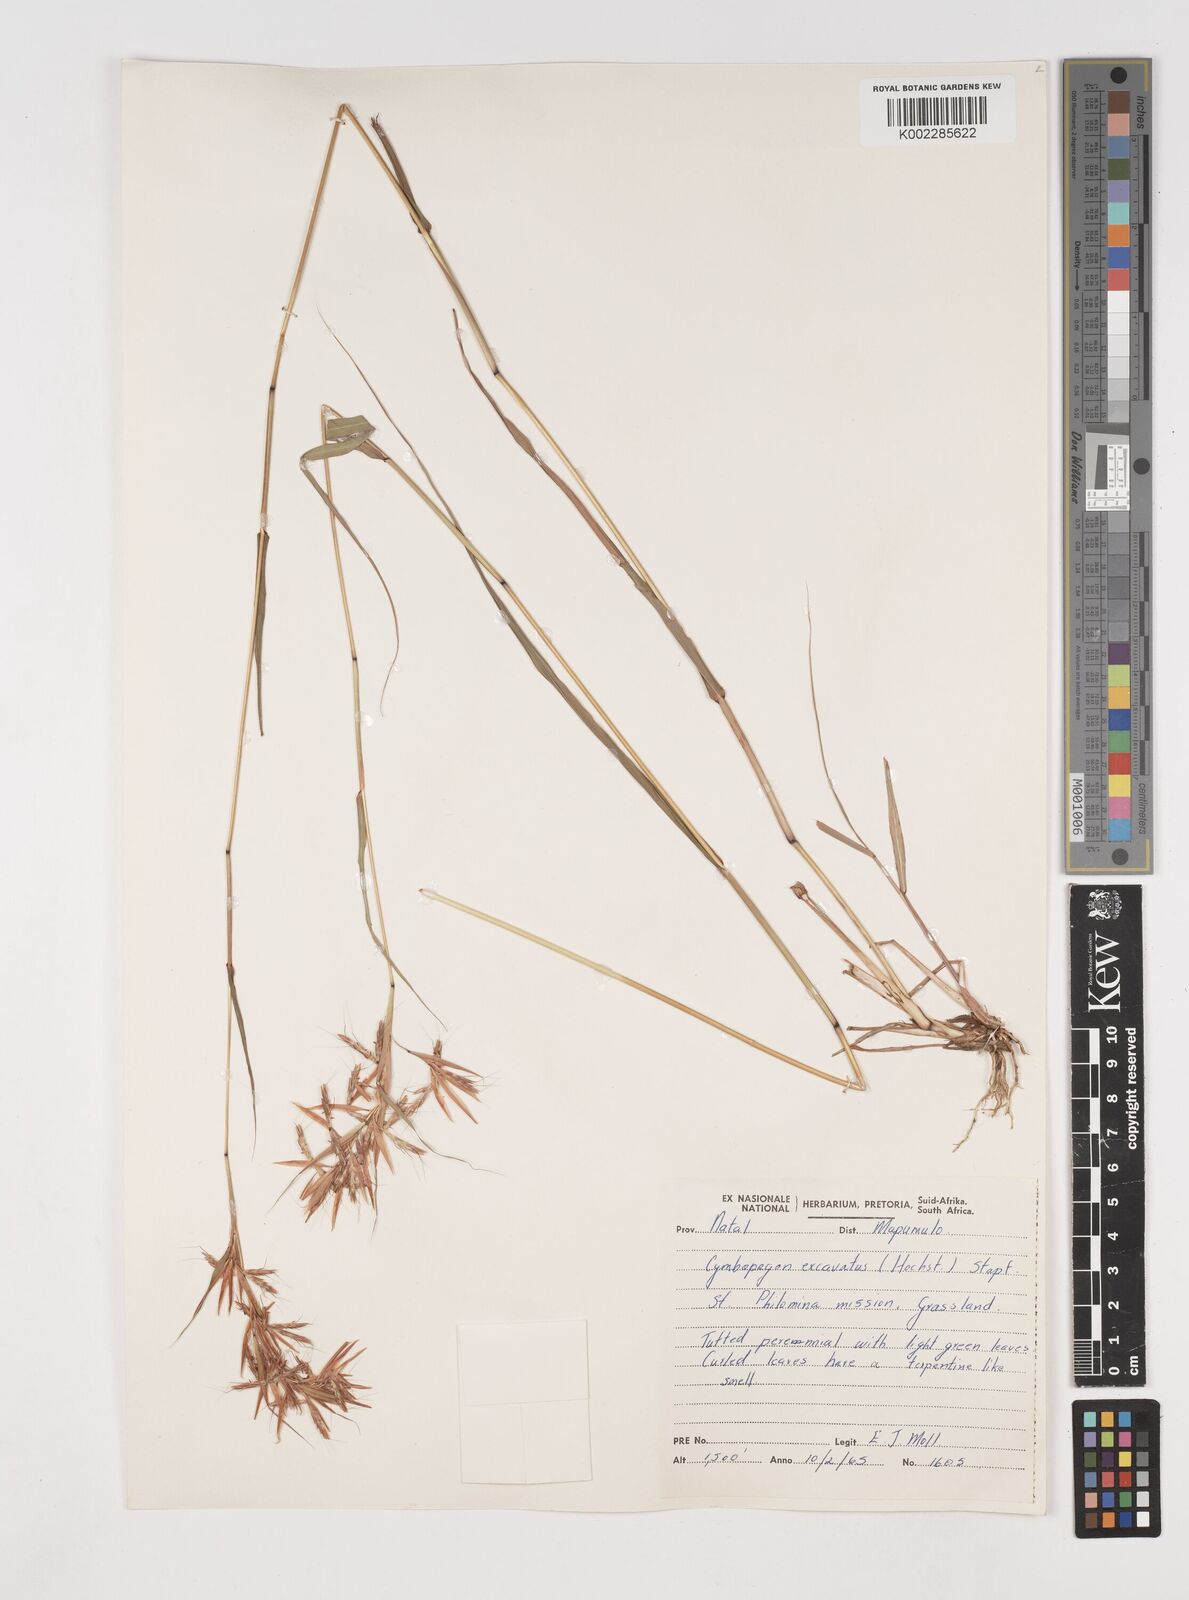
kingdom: Plantae
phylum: Tracheophyta
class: Liliopsida
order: Poales
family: Poaceae
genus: Cymbopogon
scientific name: Cymbopogon caesius
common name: Kachi grass
